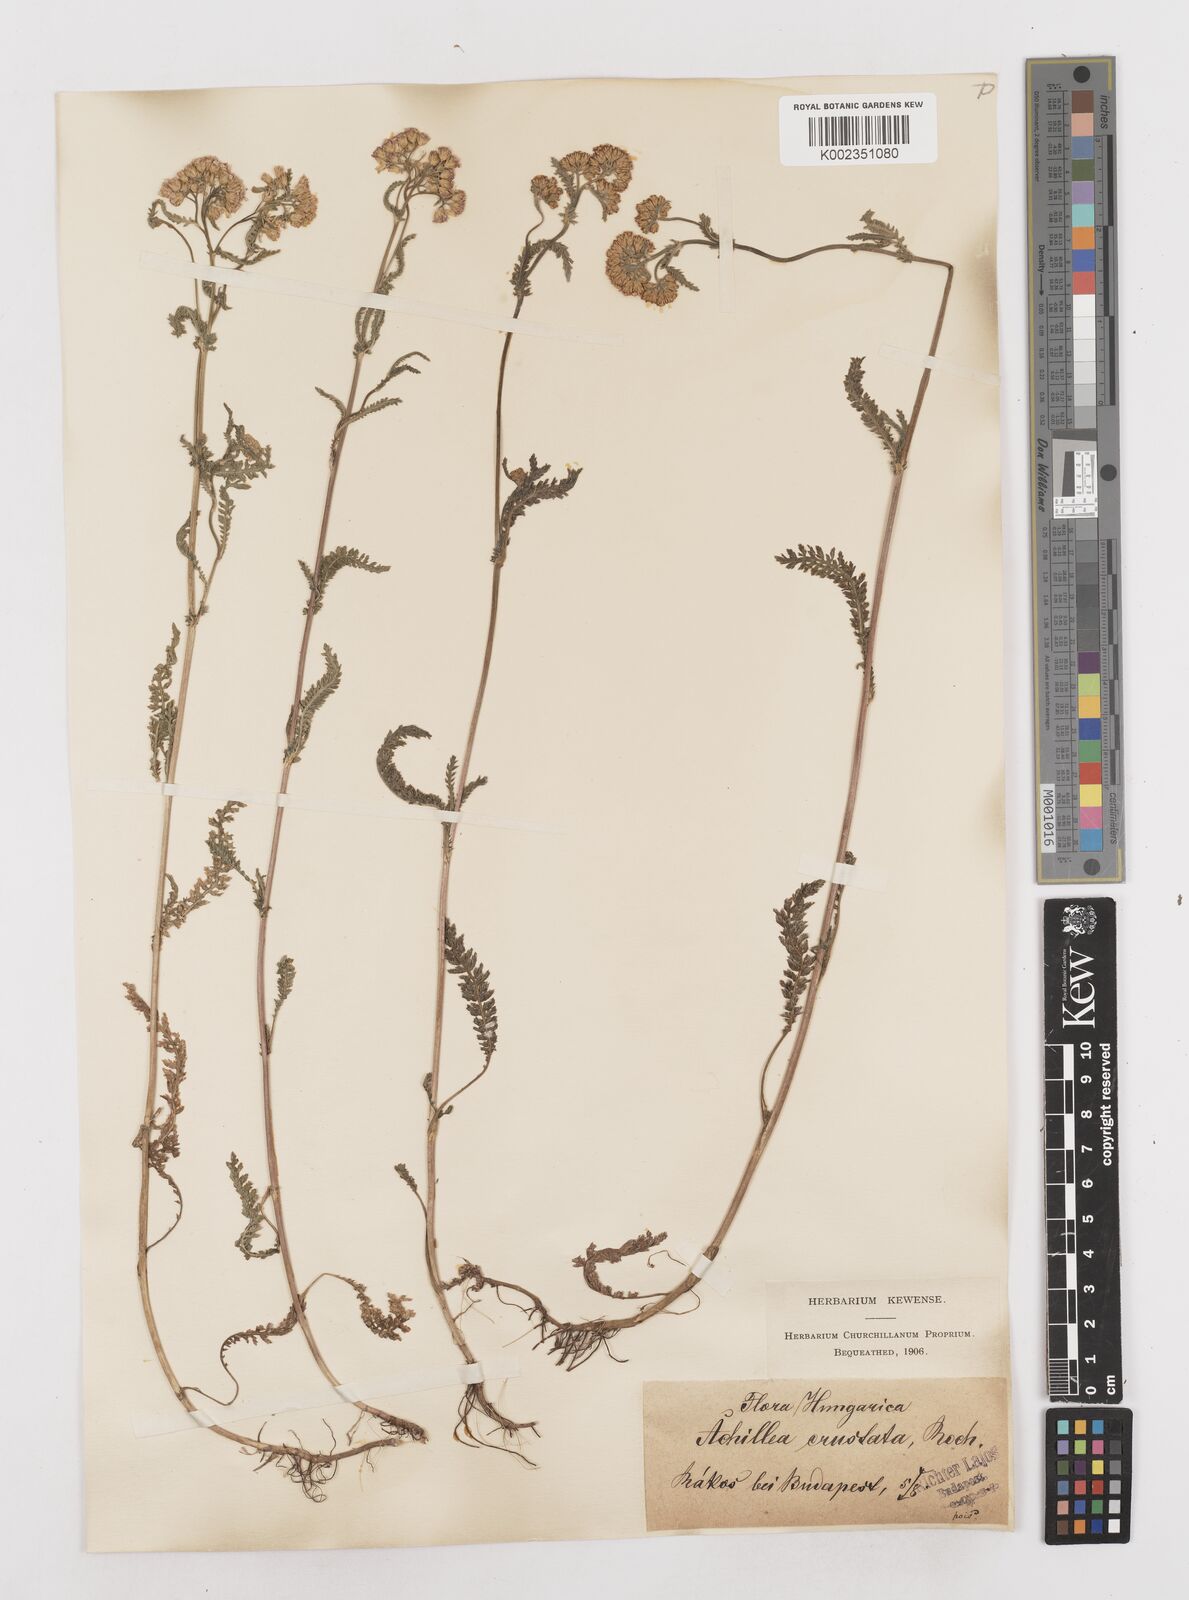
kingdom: Plantae
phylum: Tracheophyta
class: Magnoliopsida
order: Asterales
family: Asteraceae
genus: Achillea
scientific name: Achillea millefolium
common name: Yarrow
